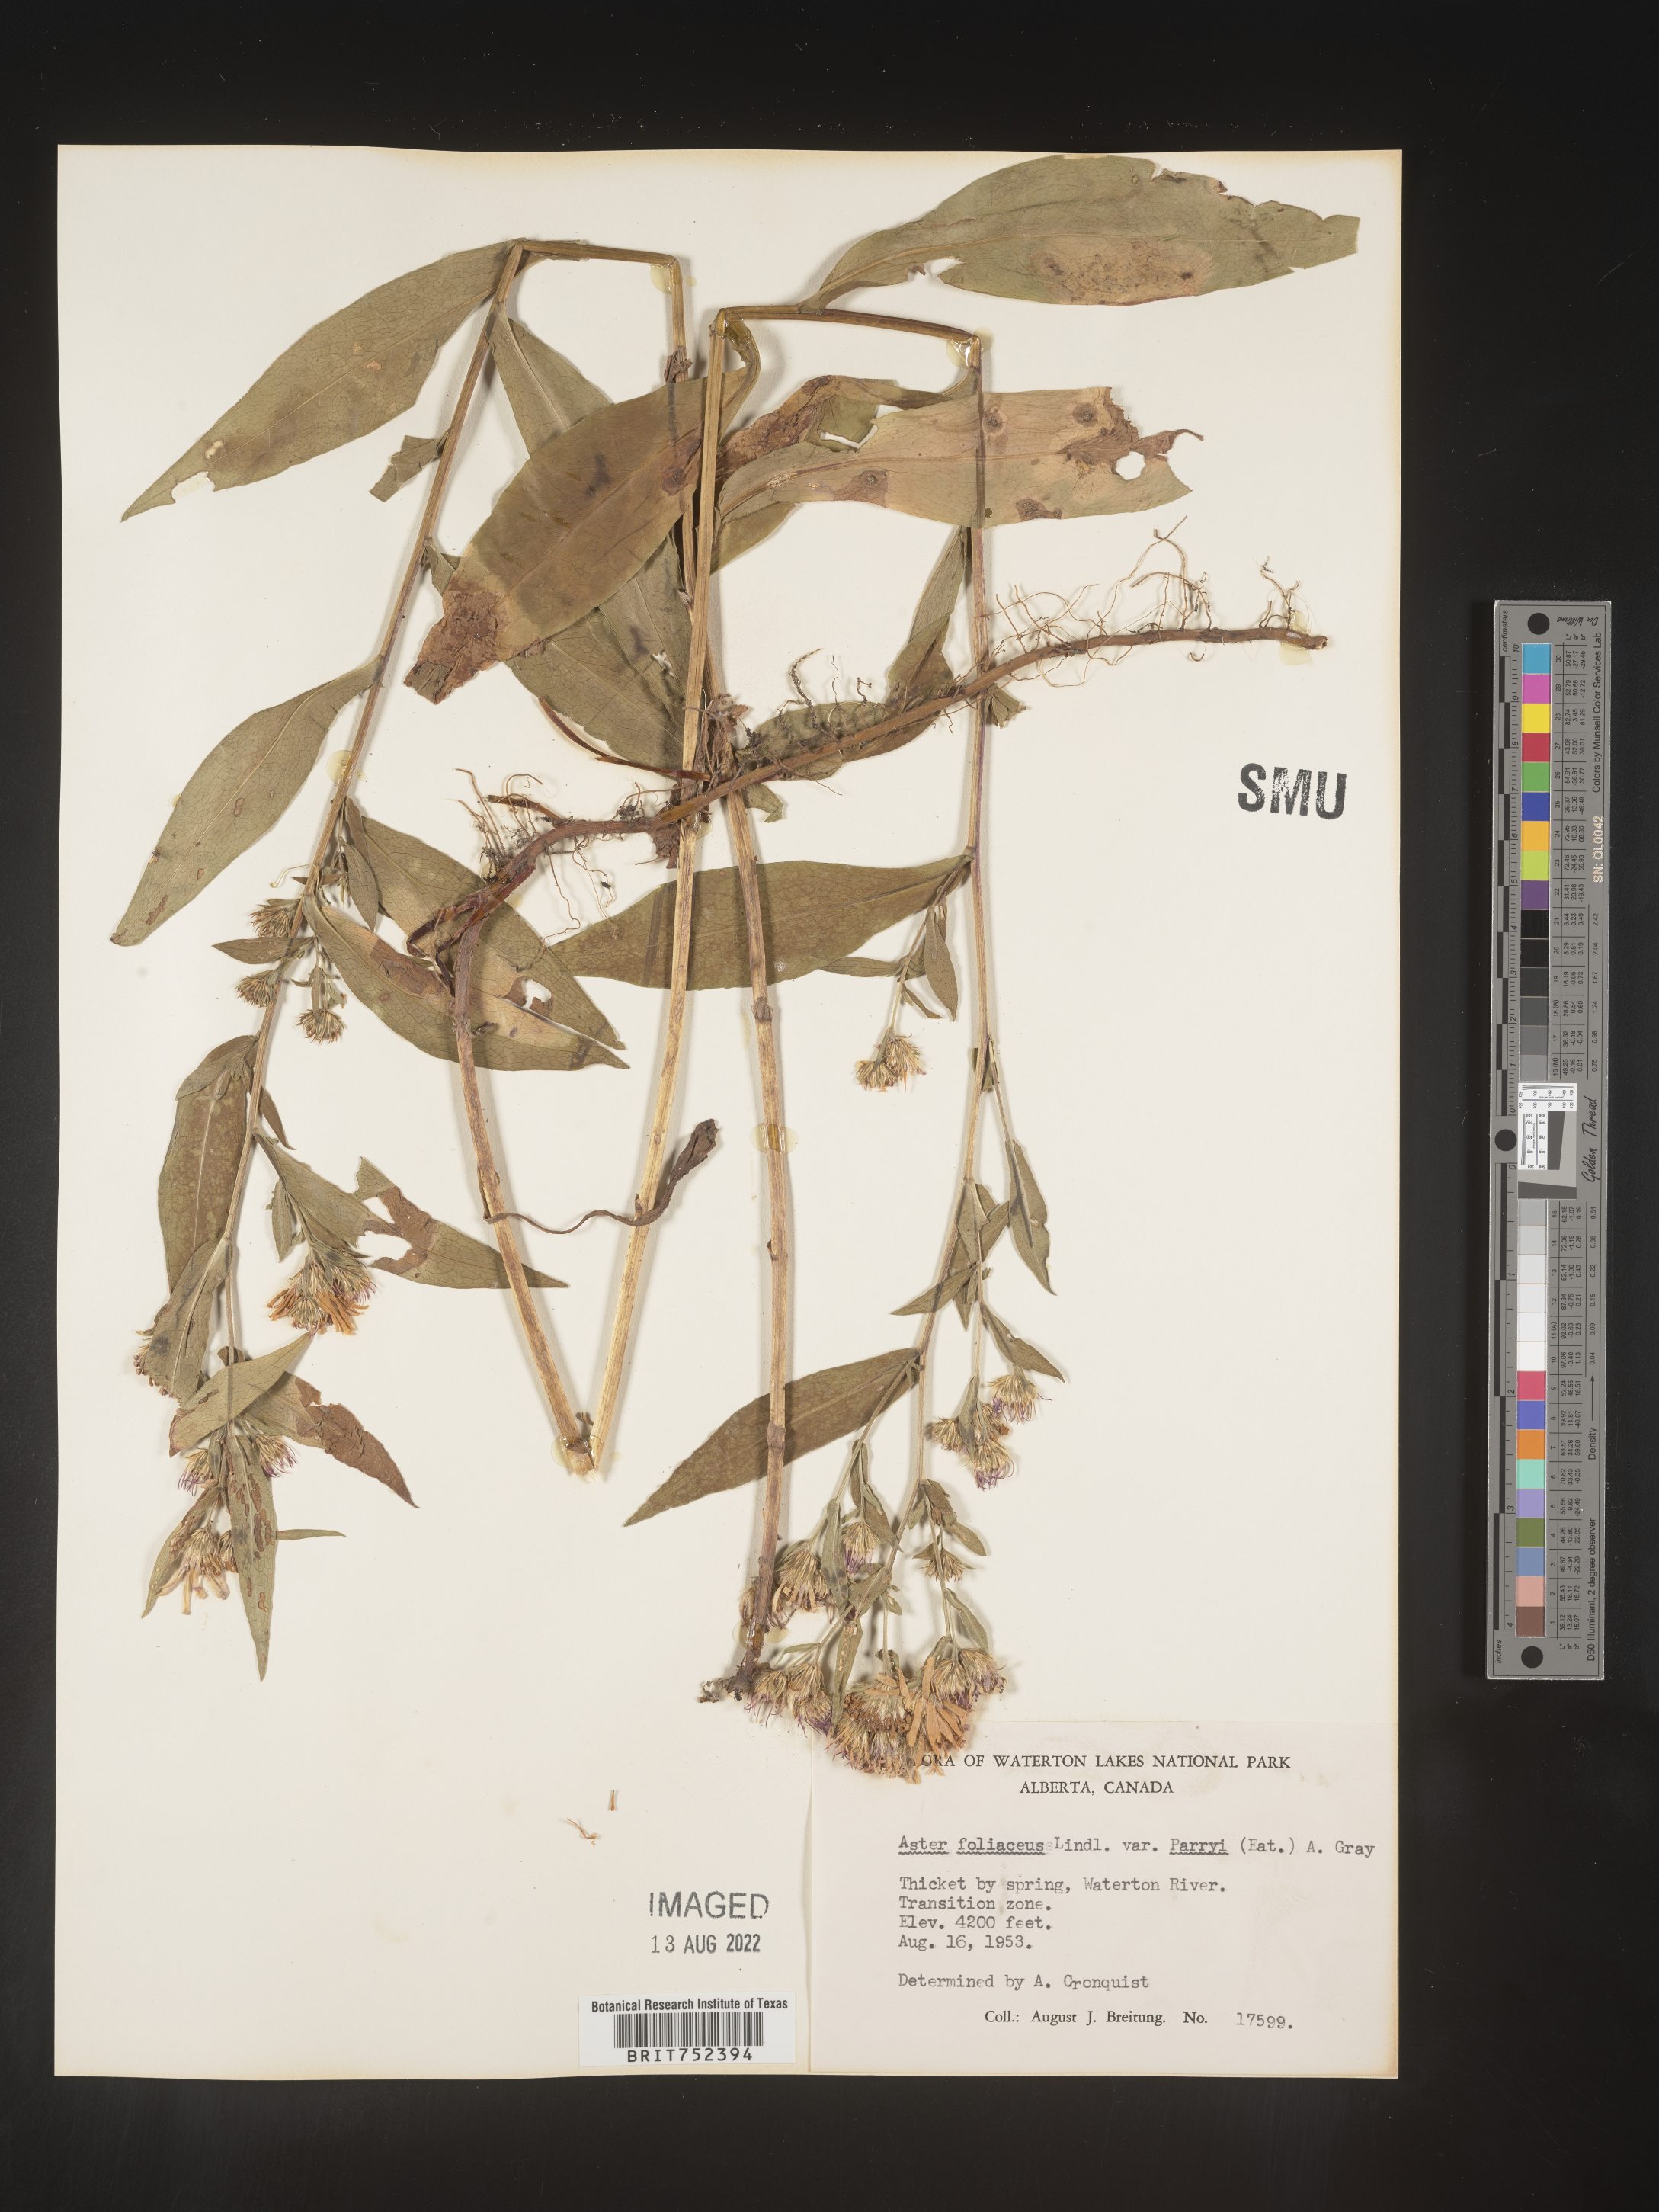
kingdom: Plantae
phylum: Tracheophyta
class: Magnoliopsida
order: Asterales
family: Asteraceae
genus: Symphyotrichum
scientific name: Symphyotrichum foliaceum
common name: Leafy aster
